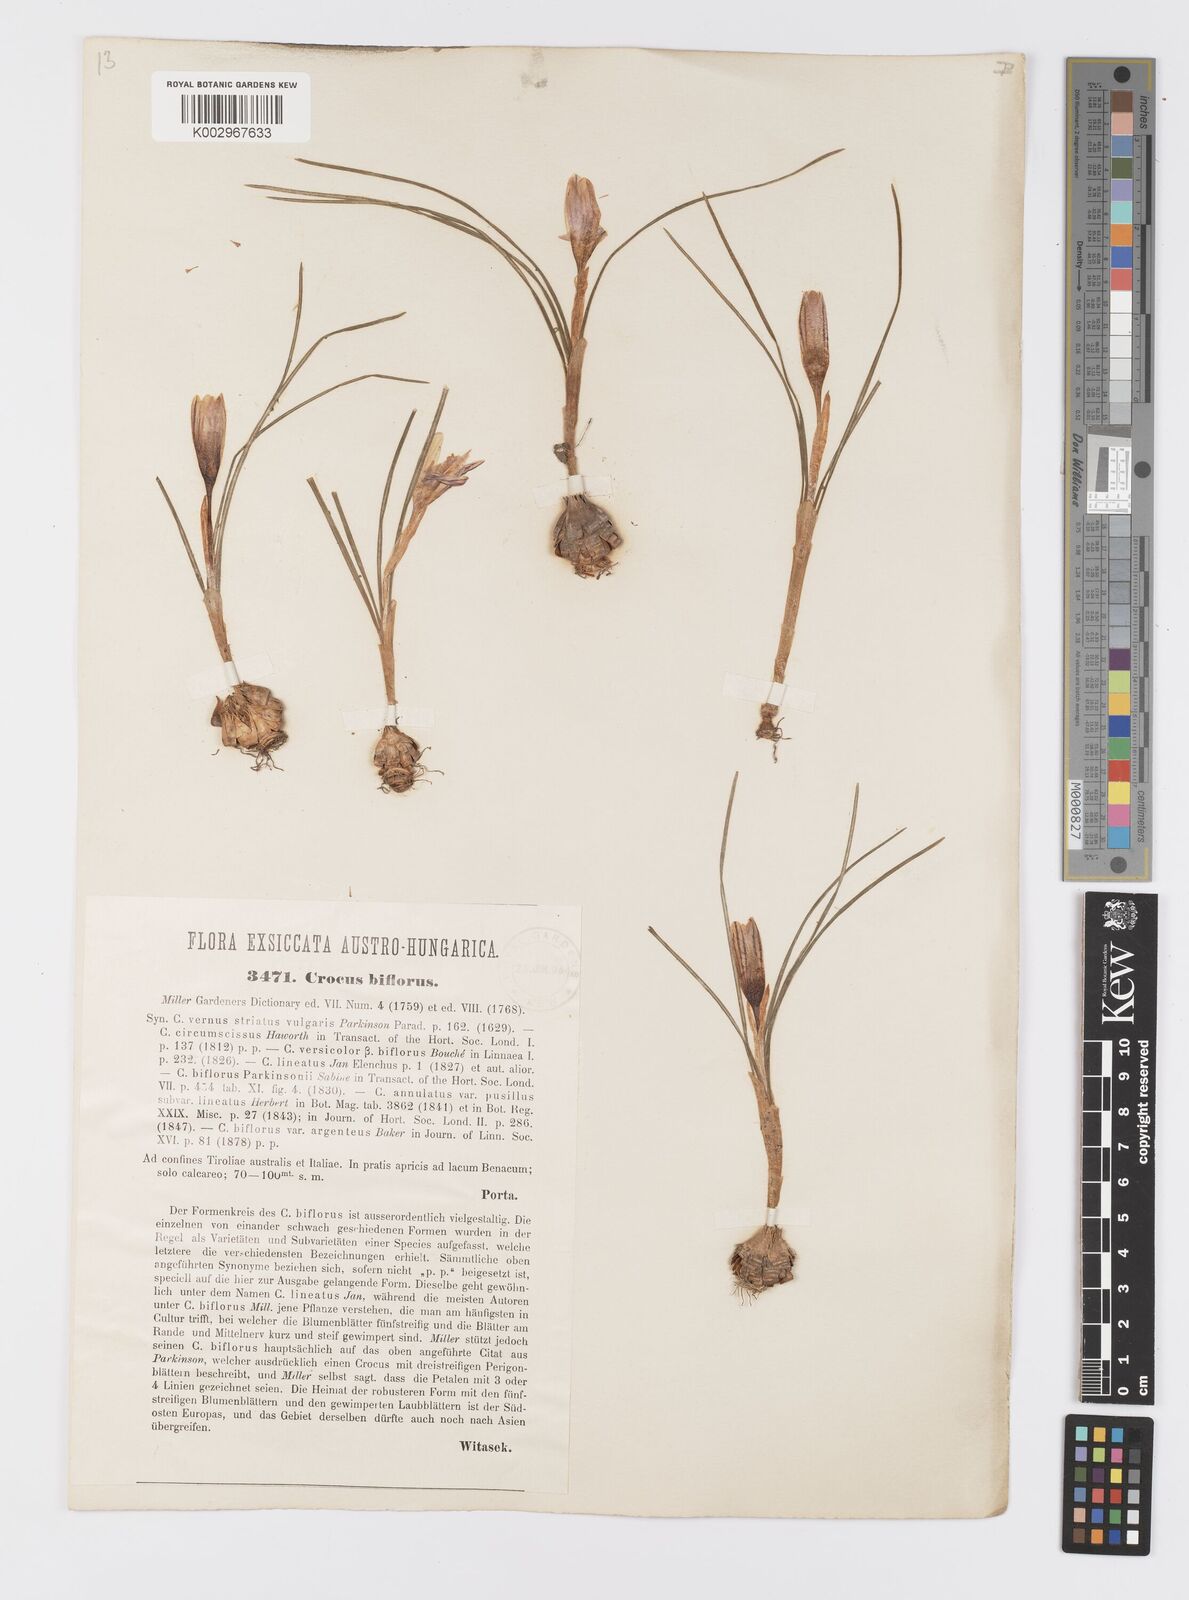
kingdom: Plantae
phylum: Tracheophyta
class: Liliopsida
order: Asparagales
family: Iridaceae
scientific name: Iridaceae
